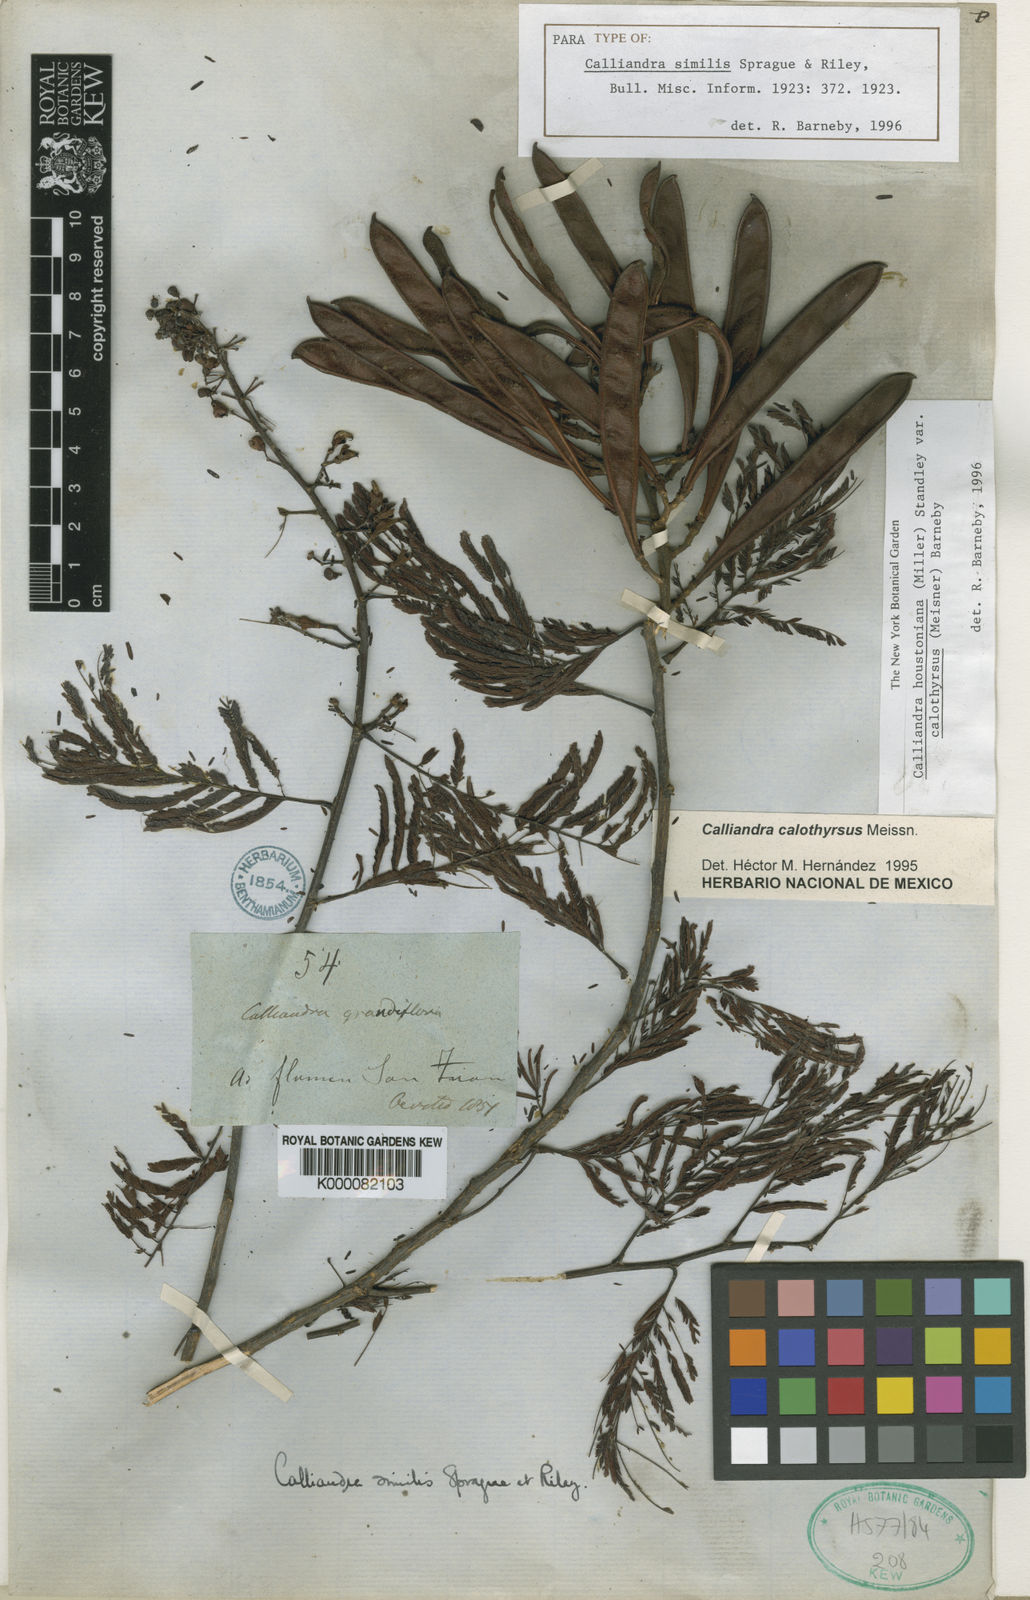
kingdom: Plantae
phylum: Tracheophyta
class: Magnoliopsida
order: Fabales
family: Fabaceae
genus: Calliandra
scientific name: Calliandra houstoniana
